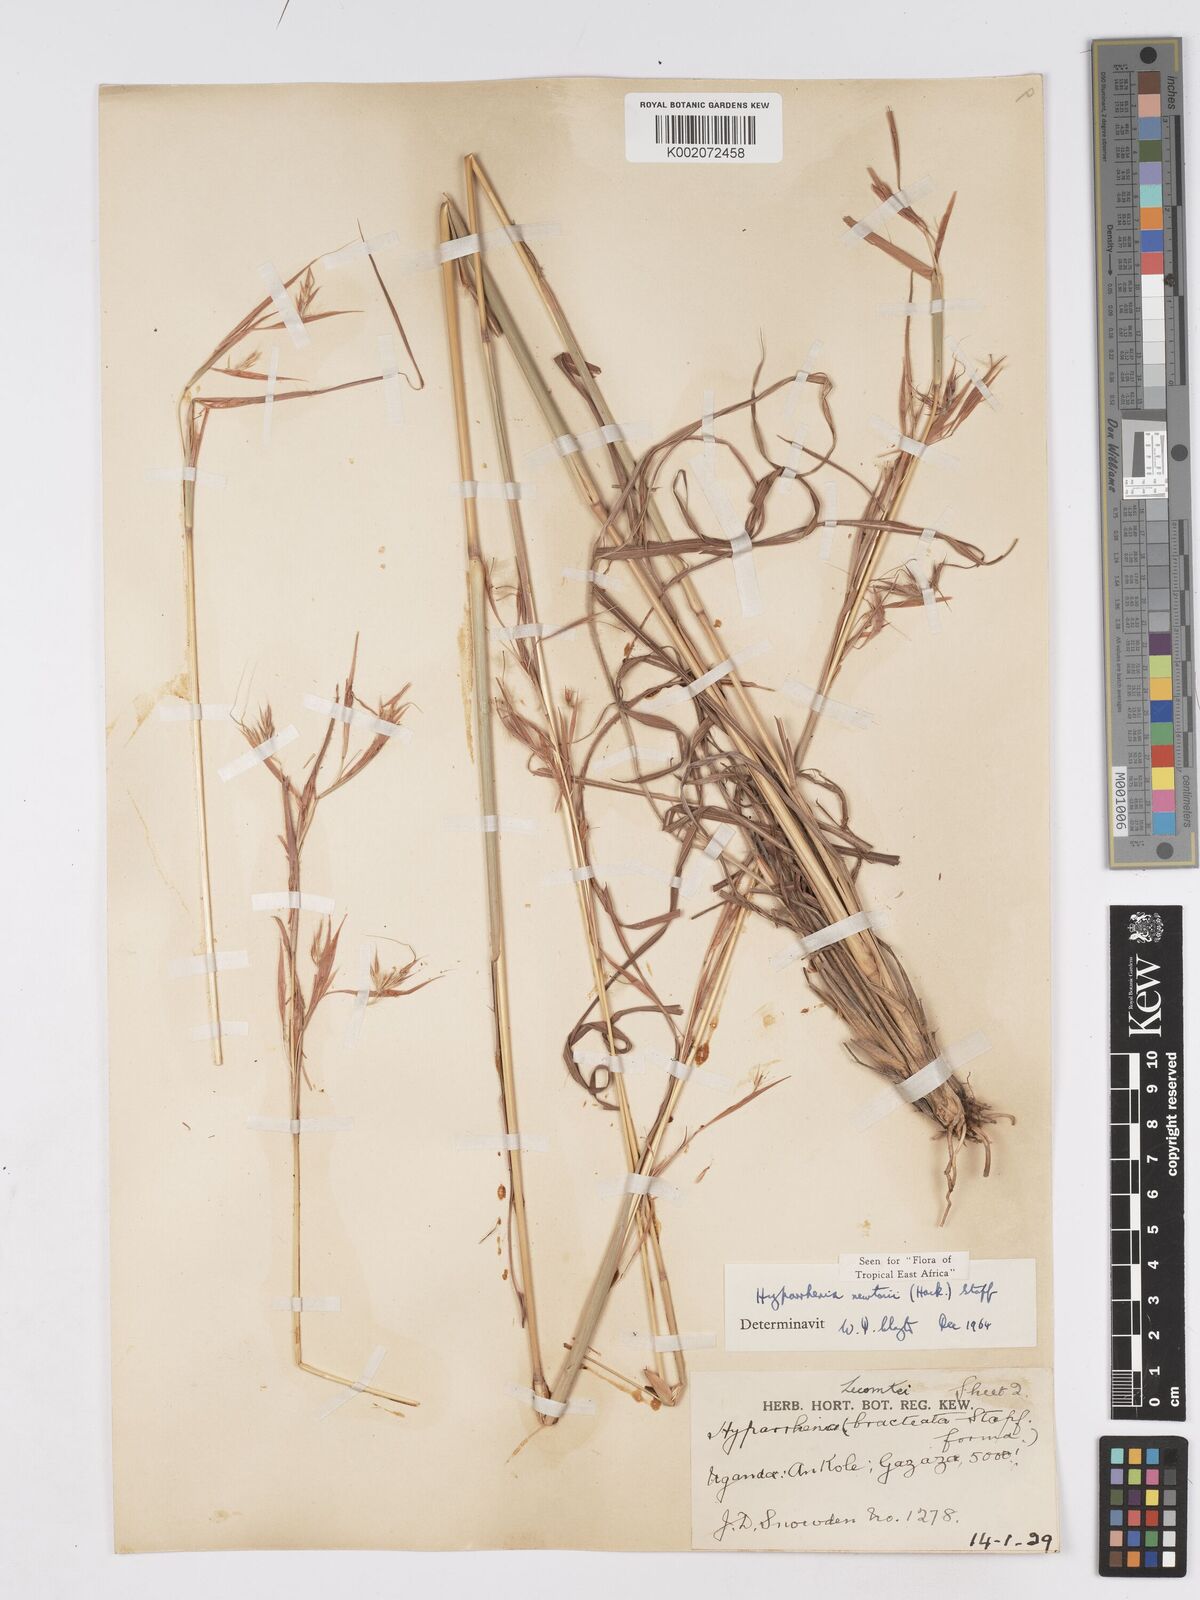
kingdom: Plantae
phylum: Tracheophyta
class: Liliopsida
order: Poales
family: Poaceae
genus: Hyparrhenia
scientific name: Hyparrhenia newtonii
